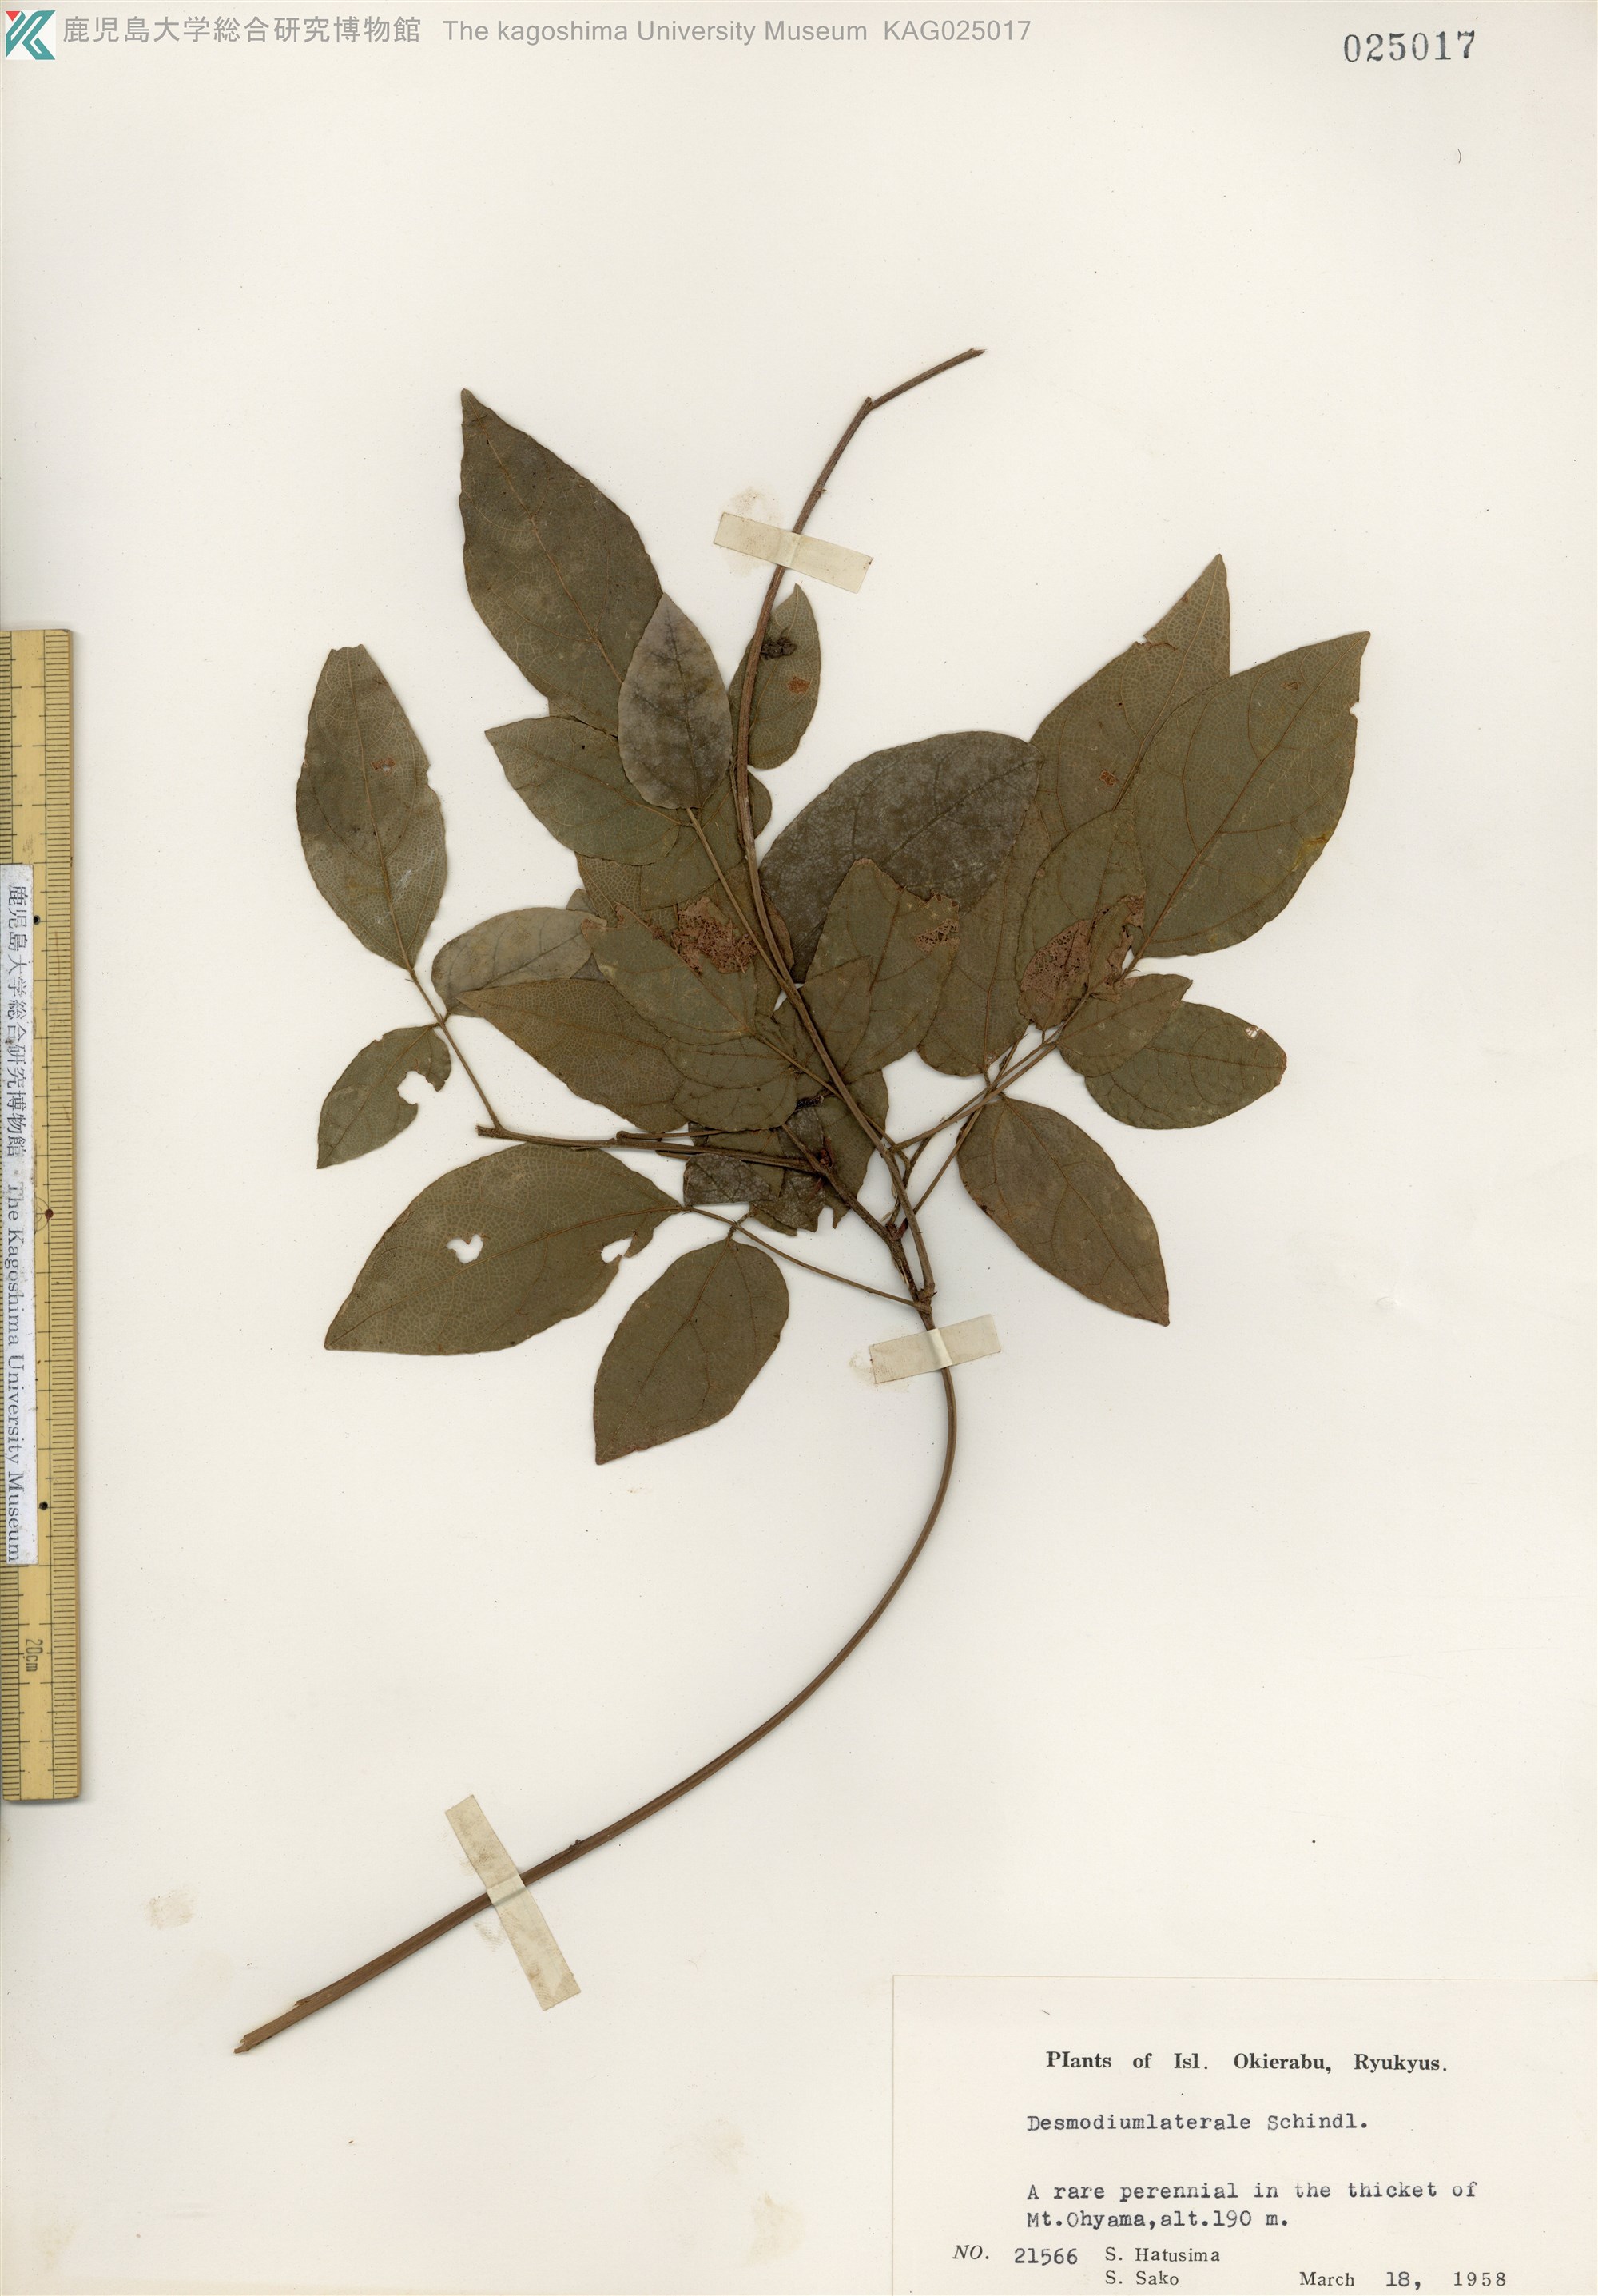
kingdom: Plantae
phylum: Tracheophyta
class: Magnoliopsida
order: Fabales
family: Fabaceae
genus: Hylodesmum
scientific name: Hylodesmum laterale
